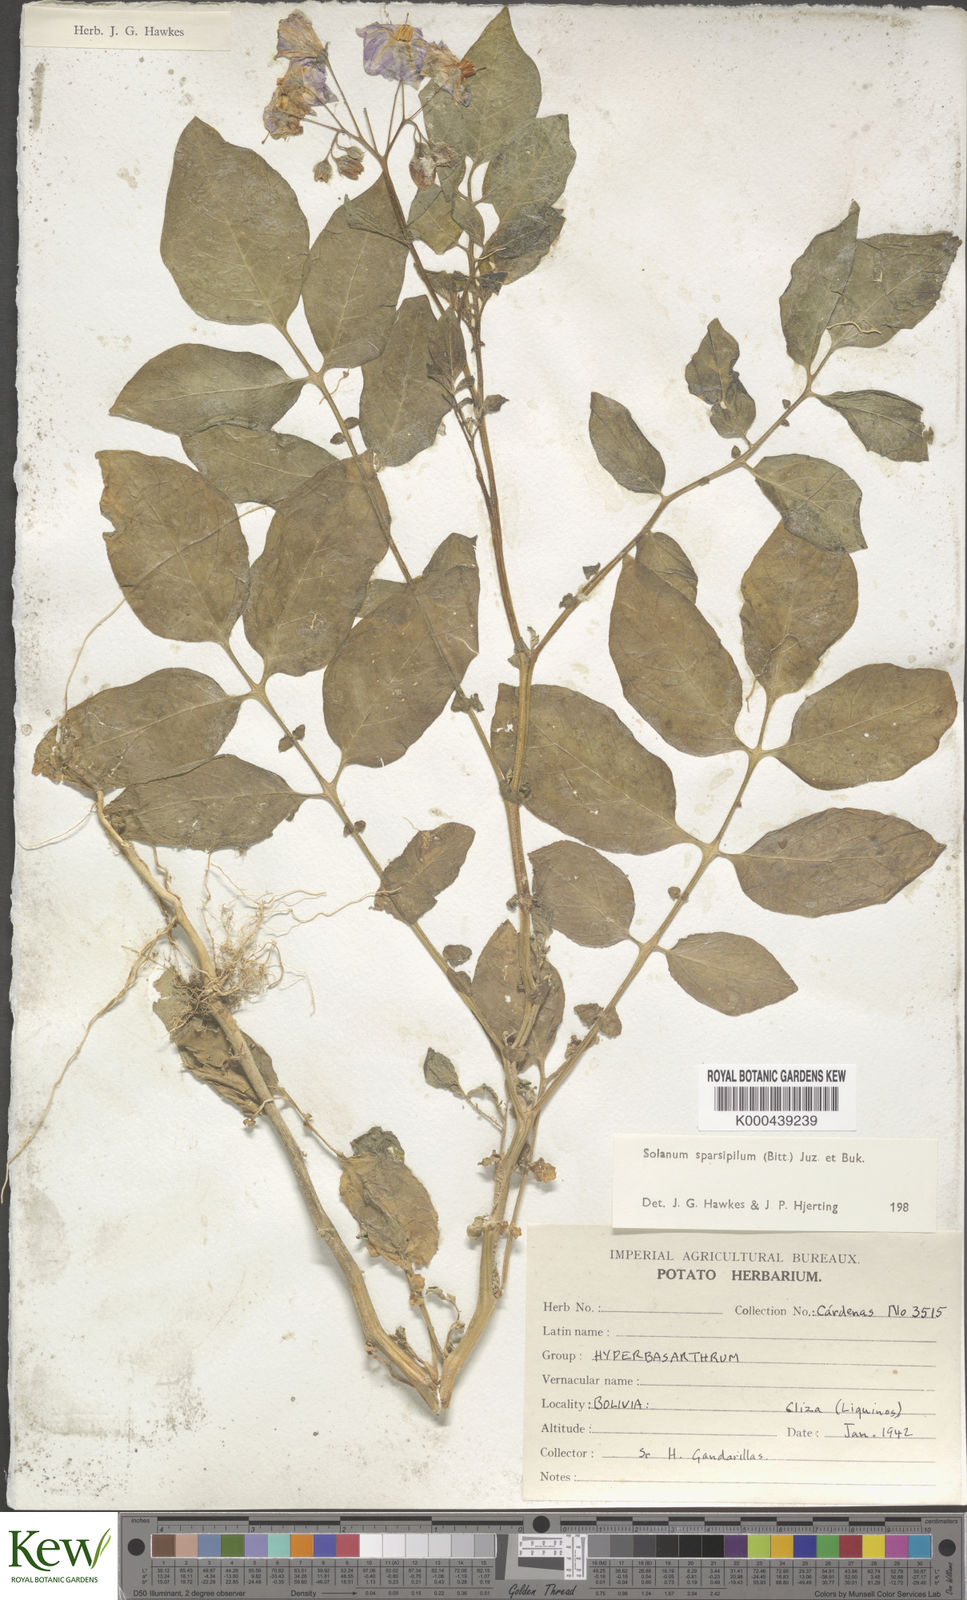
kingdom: Plantae
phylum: Tracheophyta
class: Magnoliopsida
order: Solanales
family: Solanaceae
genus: Solanum
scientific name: Solanum brevicaule
